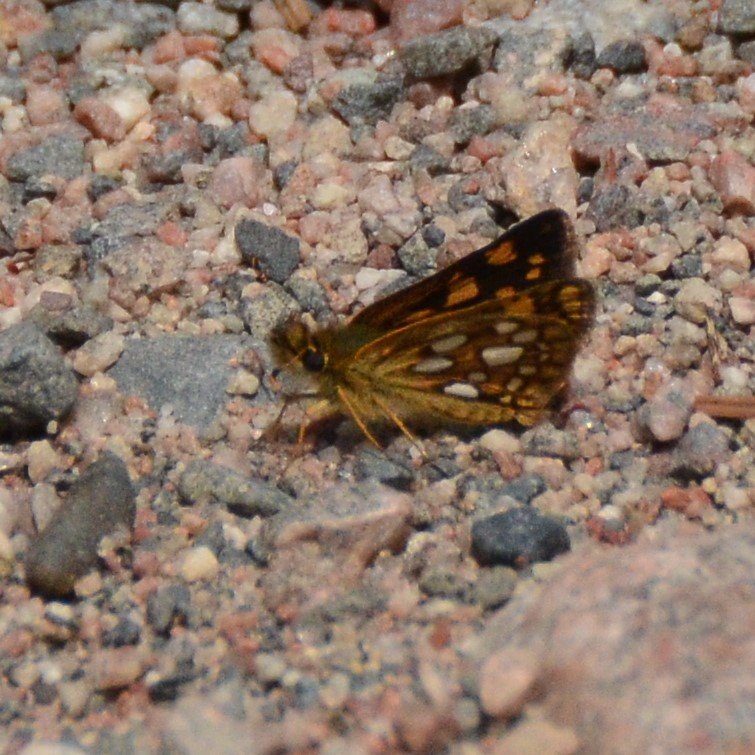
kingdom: Animalia
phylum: Arthropoda
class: Insecta
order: Lepidoptera
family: Hesperiidae
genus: Carterocephalus
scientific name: Carterocephalus palaemon
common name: Chequered Skipper
